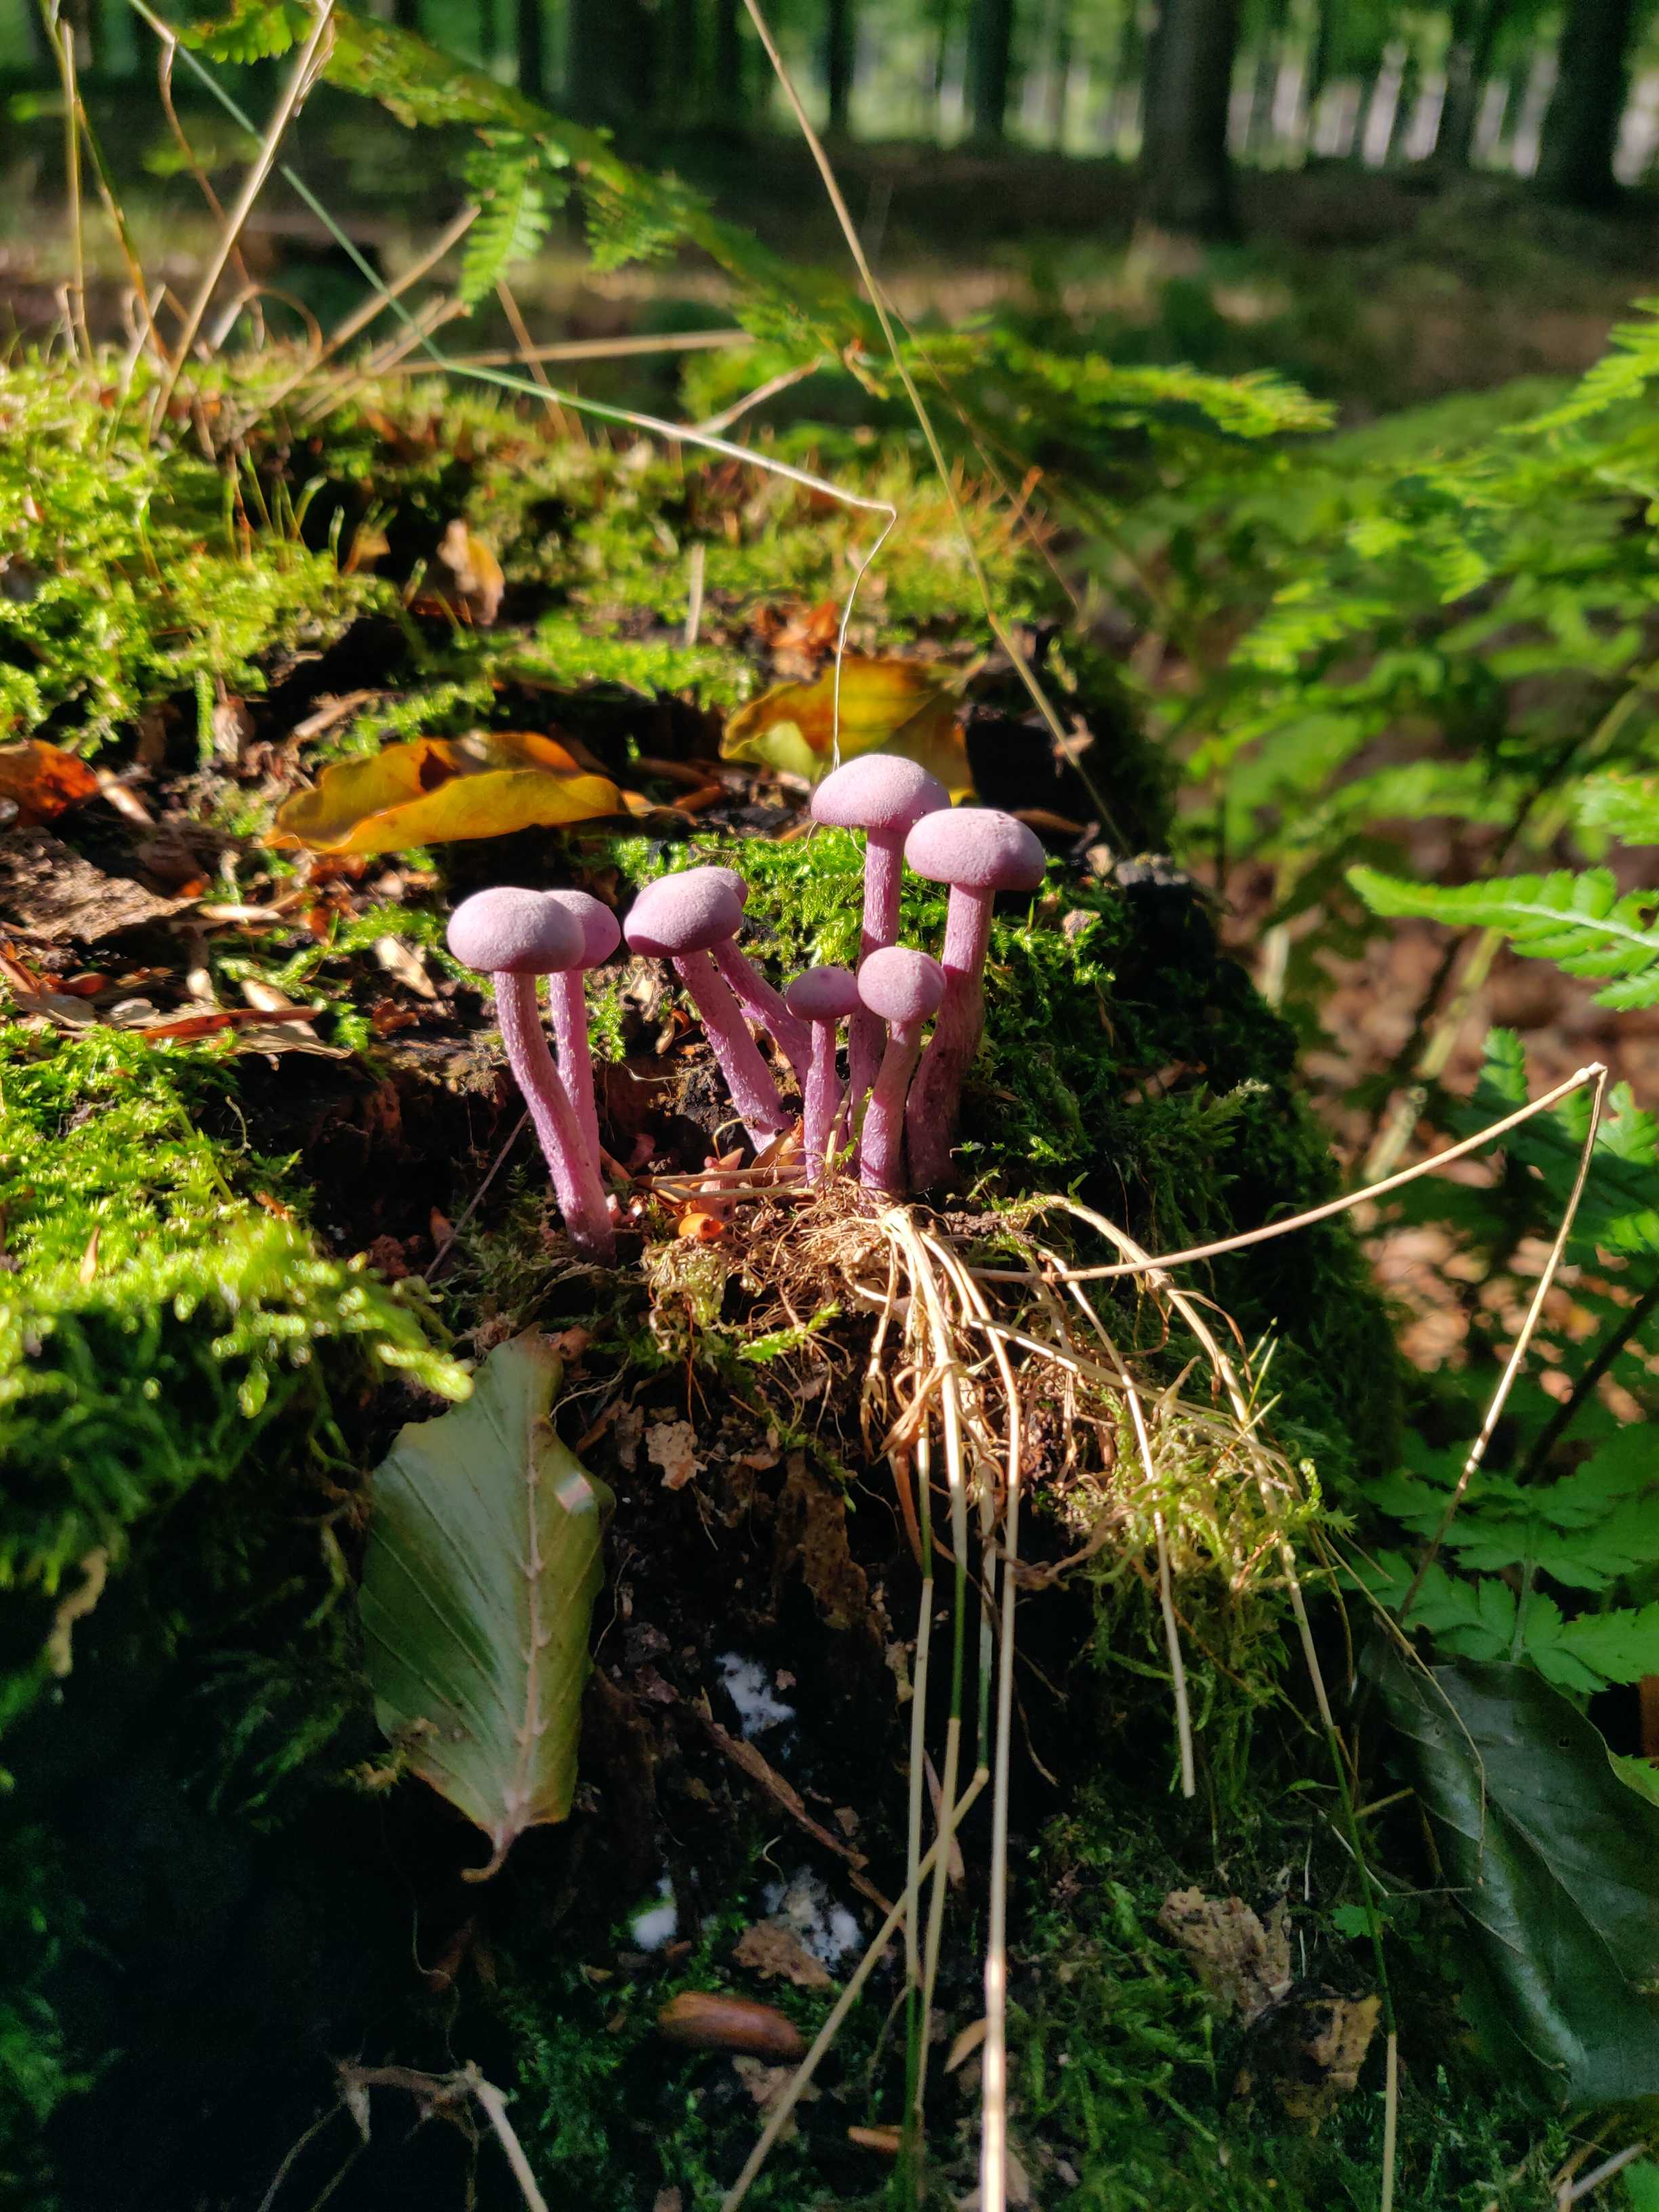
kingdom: Fungi
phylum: Basidiomycota
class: Agaricomycetes
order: Agaricales
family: Hydnangiaceae
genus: Laccaria
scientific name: Laccaria amethystina
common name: violet ametysthat
